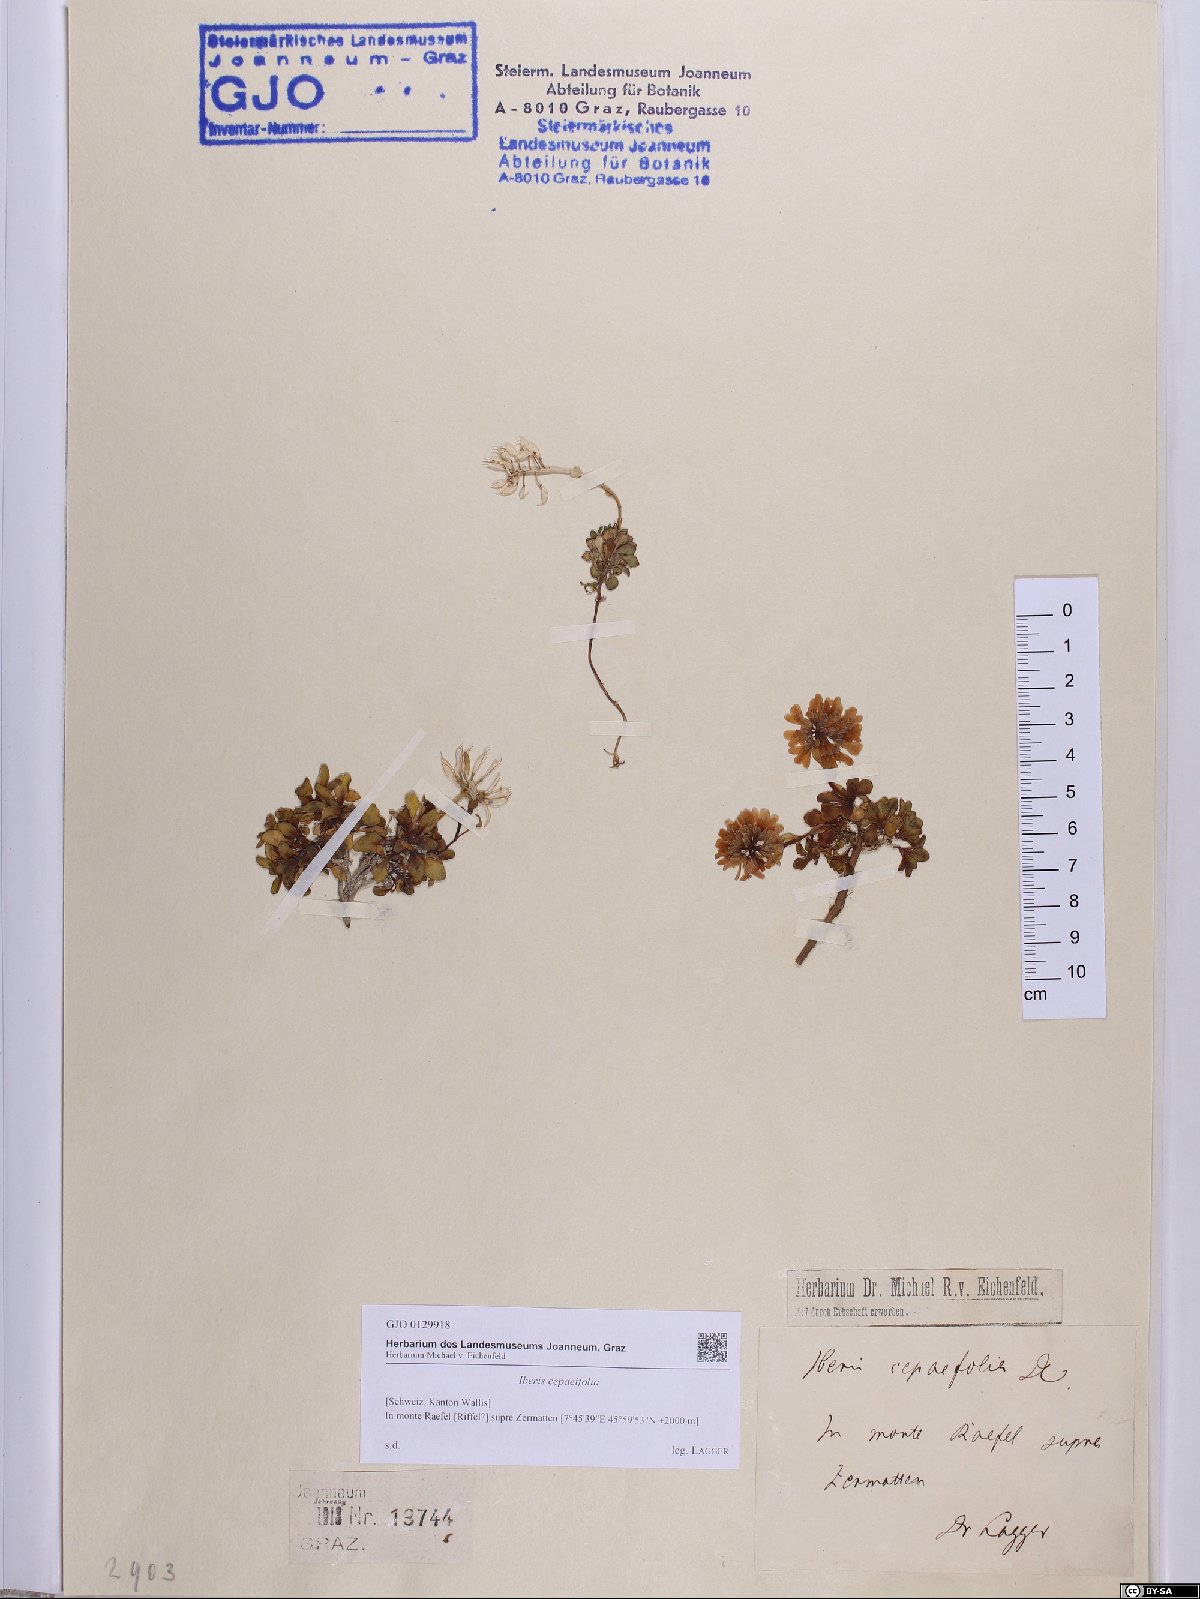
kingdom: Plantae
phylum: Tracheophyta
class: Magnoliopsida
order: Brassicales
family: Brassicaceae
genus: Noccaea
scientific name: Noccaea cepaeifolia
